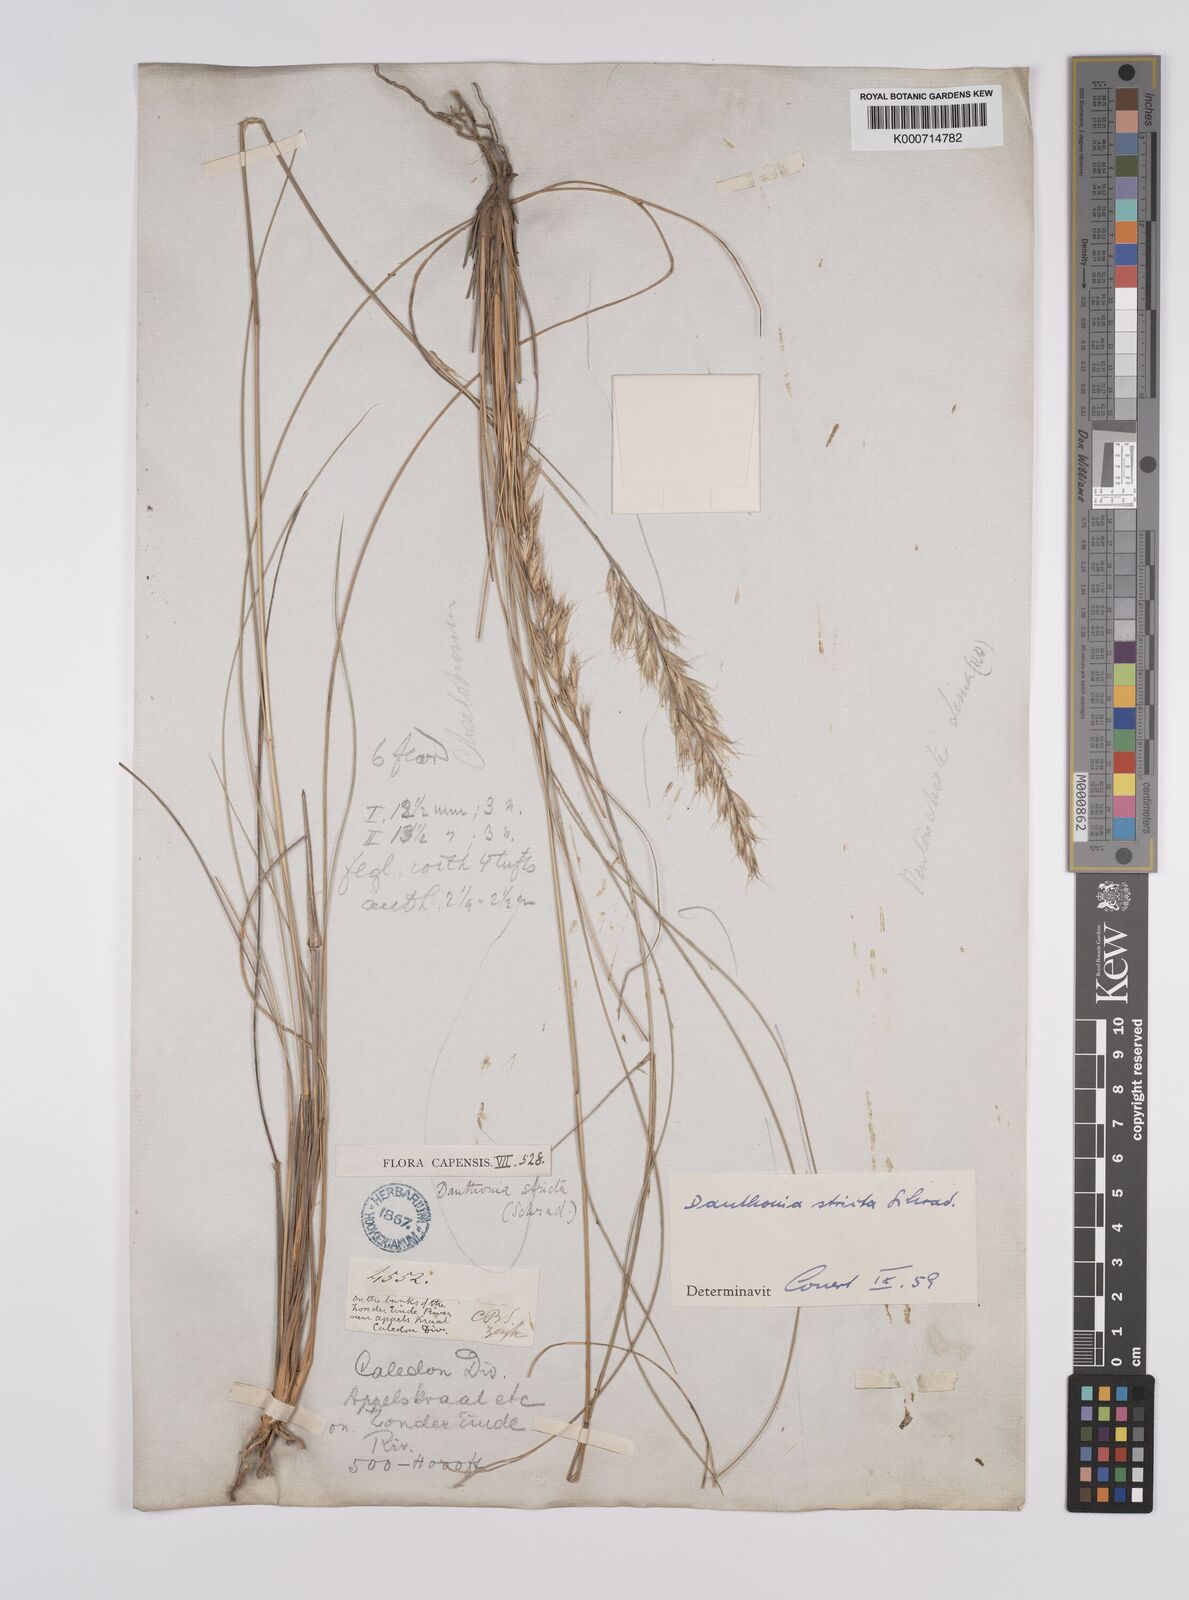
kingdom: Plantae
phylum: Tracheophyta
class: Liliopsida
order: Poales
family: Poaceae
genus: Rytidosperma
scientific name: Rytidosperma
